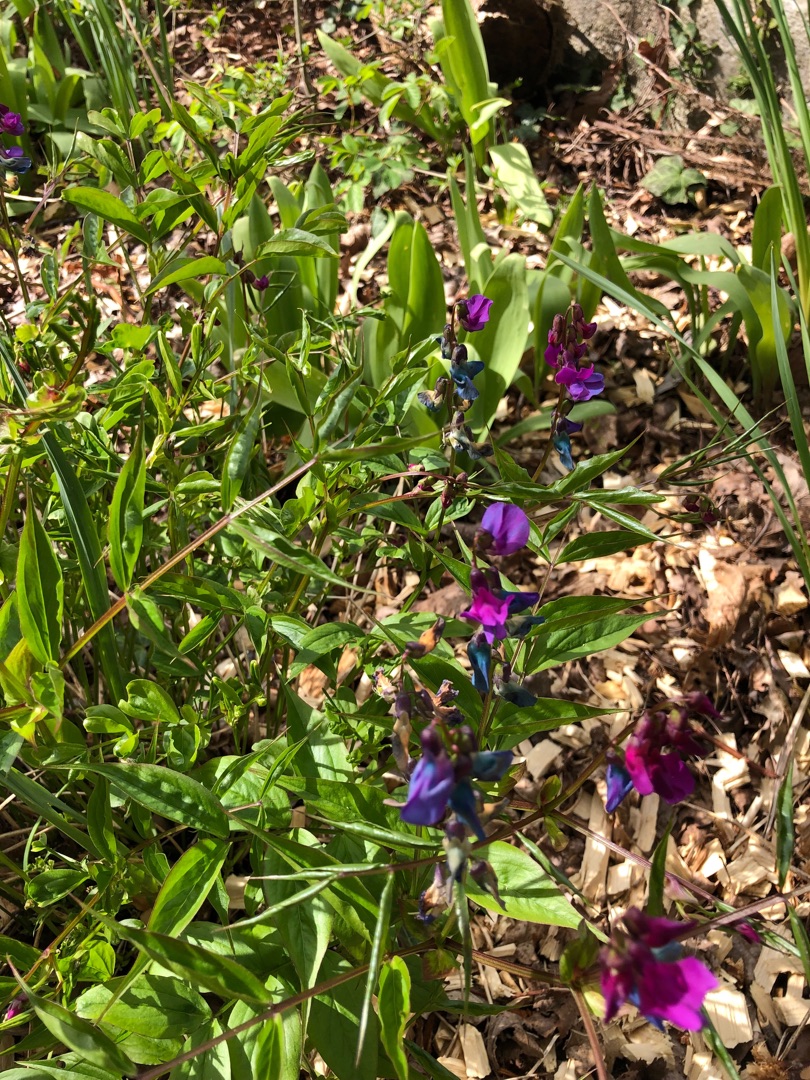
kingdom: Plantae
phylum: Tracheophyta
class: Magnoliopsida
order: Fabales
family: Fabaceae
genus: Lathyrus
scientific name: Lathyrus vernus
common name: Vår-fladbælg
